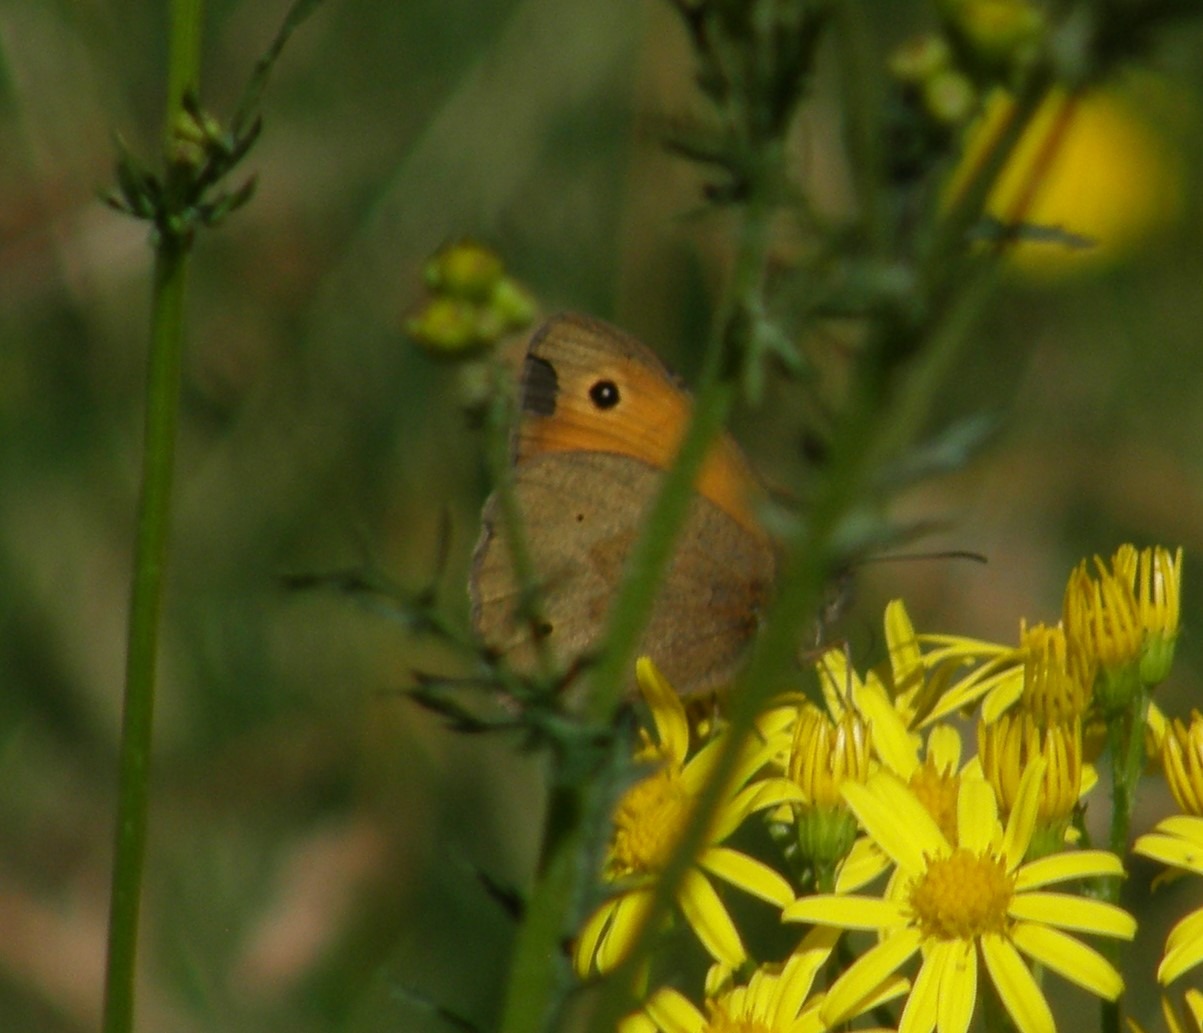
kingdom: Animalia
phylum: Arthropoda
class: Insecta
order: Lepidoptera
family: Nymphalidae
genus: Maniola
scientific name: Maniola jurtina
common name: Græsrandøje
